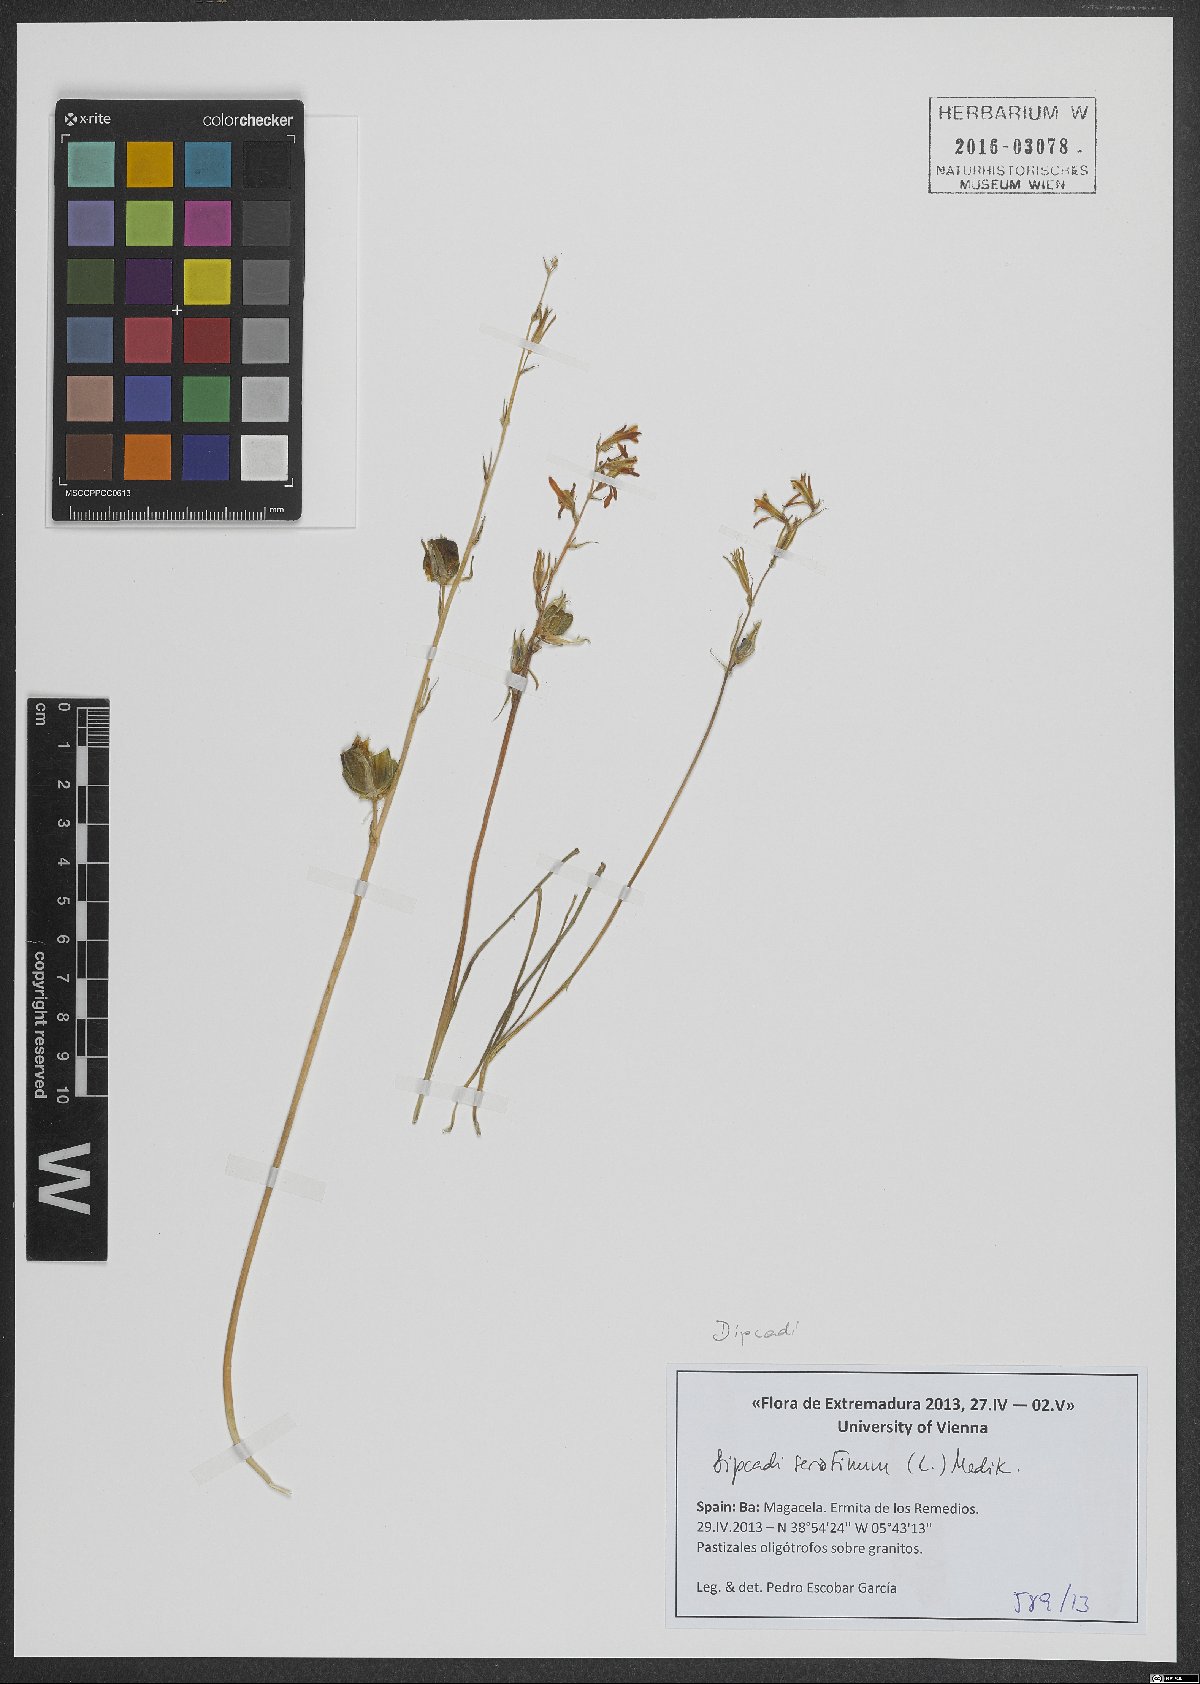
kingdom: Plantae
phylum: Tracheophyta
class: Liliopsida
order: Asparagales
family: Asparagaceae
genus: Dipcadi
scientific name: Dipcadi serotinum
